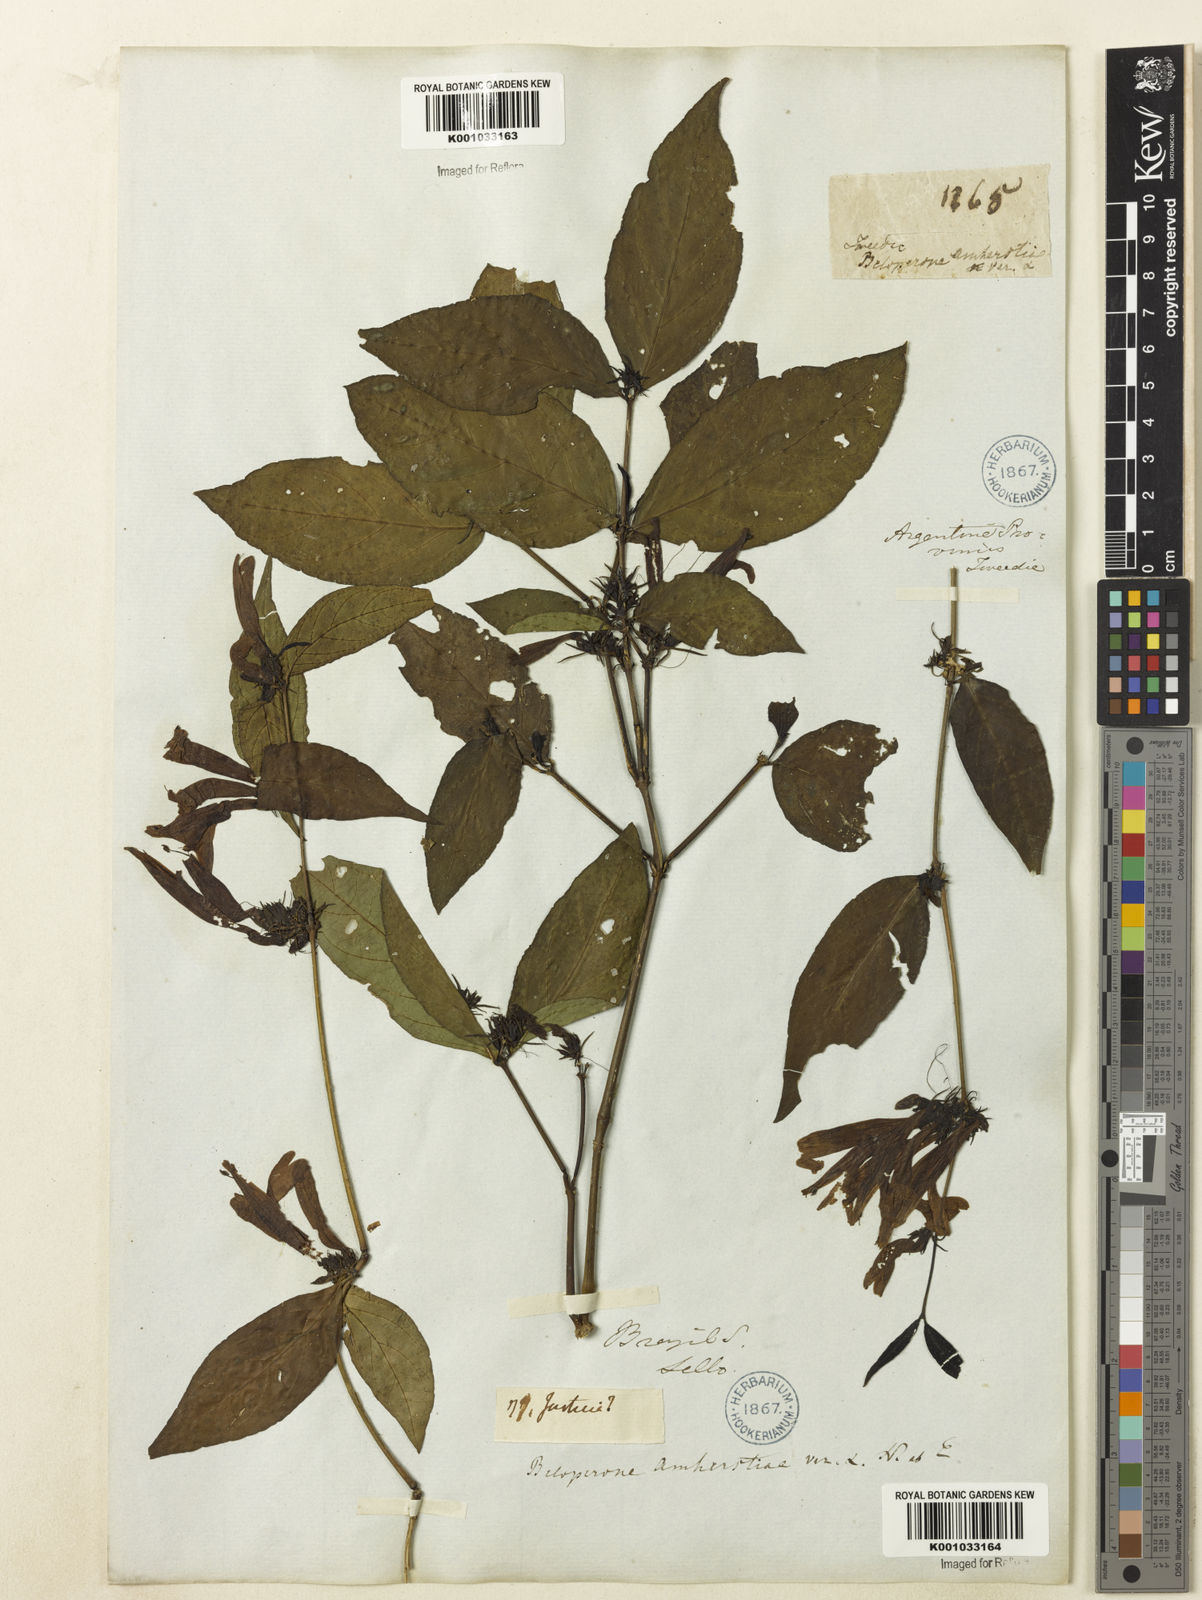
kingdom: Plantae
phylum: Tracheophyta
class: Magnoliopsida
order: Lamiales
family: Acanthaceae
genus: Justicia
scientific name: Justicia brasiliana
